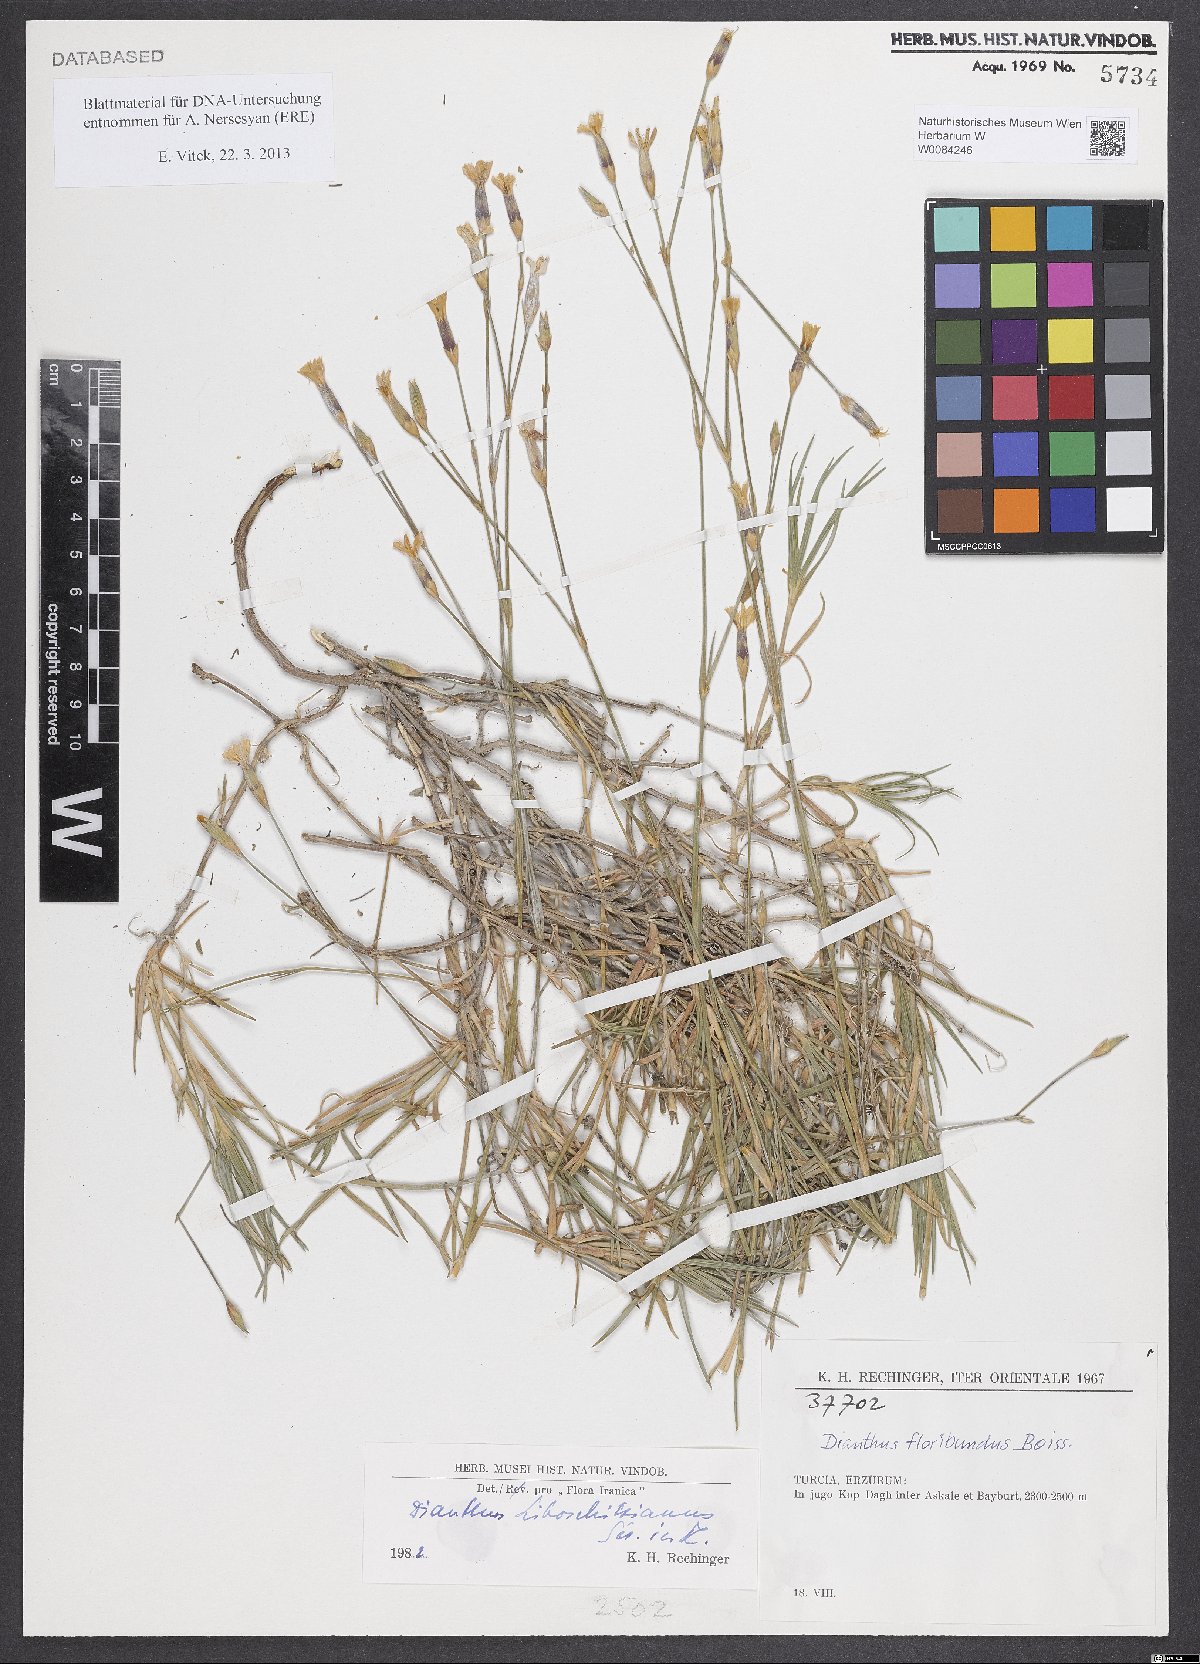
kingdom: Plantae
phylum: Tracheophyta
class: Magnoliopsida
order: Caryophyllales
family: Caryophyllaceae
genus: Dianthus
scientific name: Dianthus cretaceus
